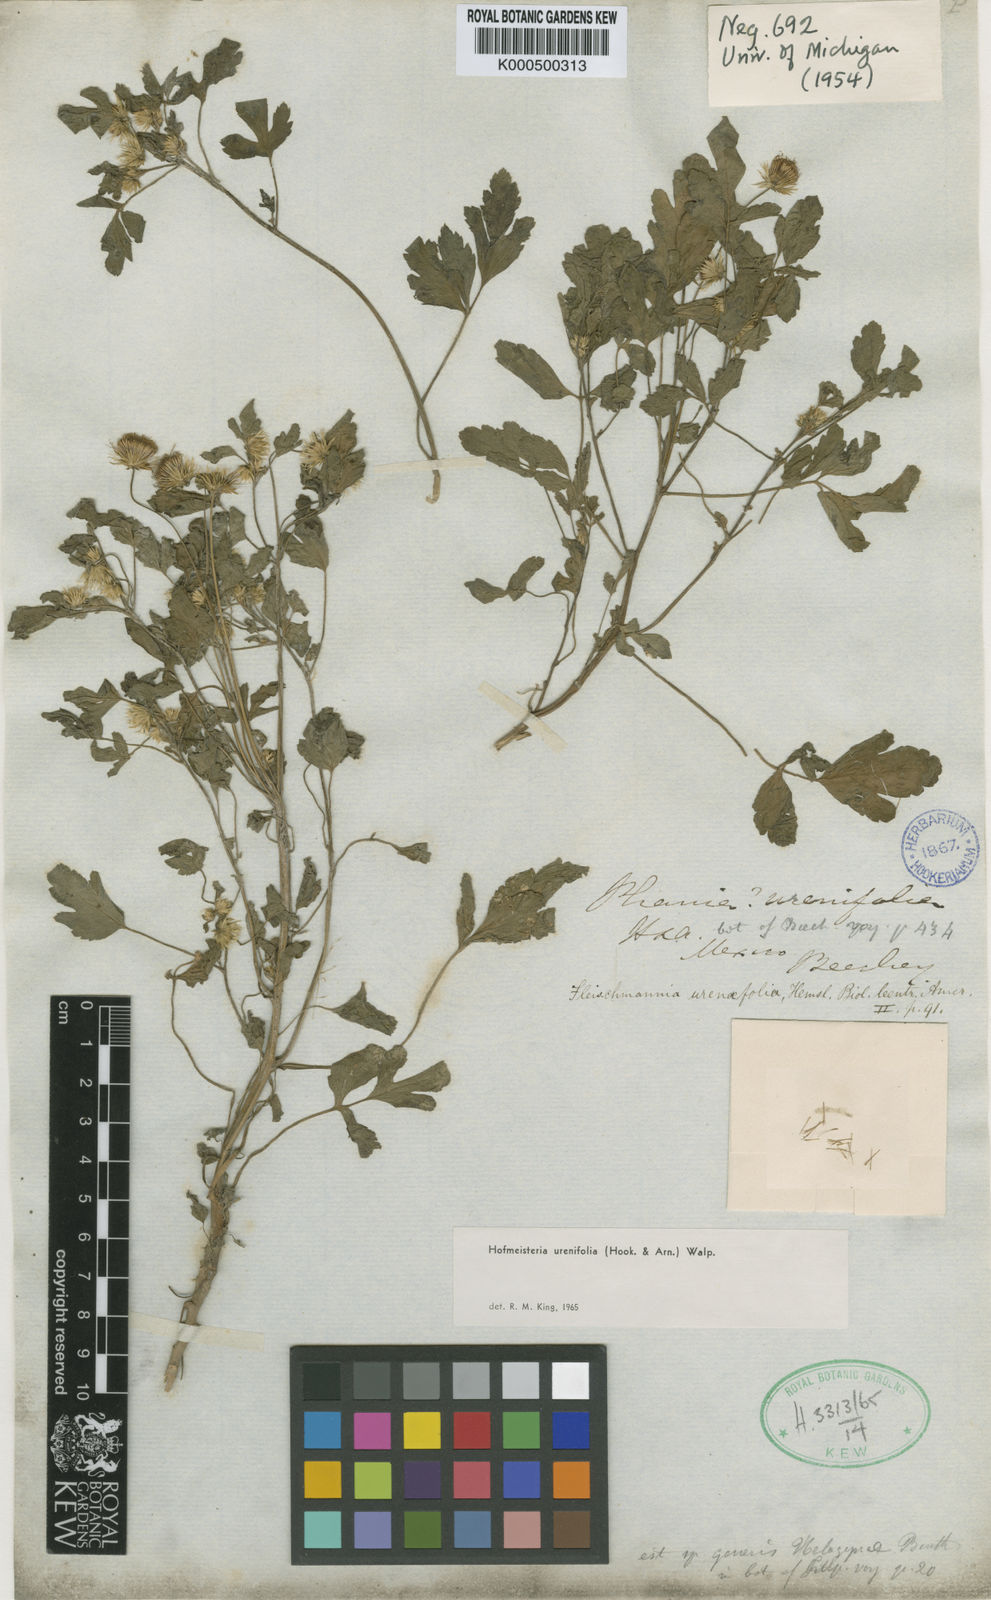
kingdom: Plantae
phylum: Tracheophyta
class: Magnoliopsida
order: Asterales
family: Asteraceae
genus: Hofmeisteria
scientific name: Hofmeisteria urenifolia
